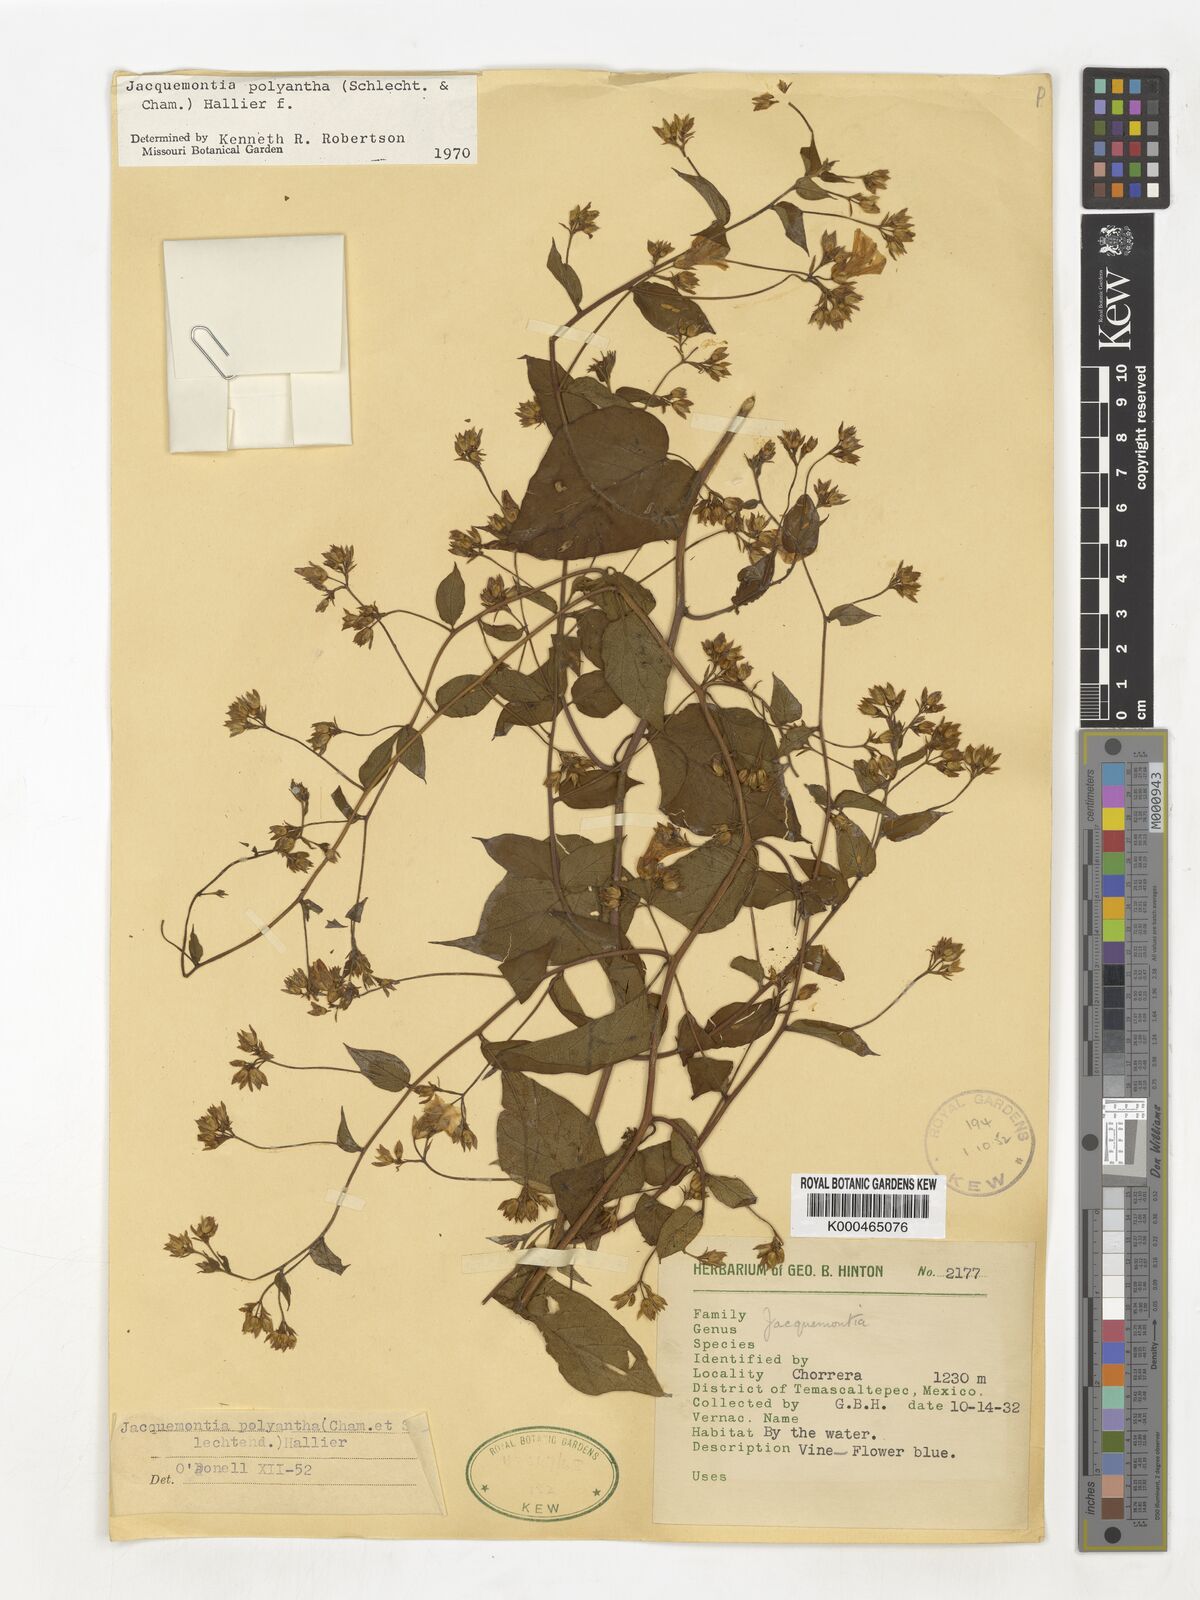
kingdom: Plantae
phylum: Tracheophyta
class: Magnoliopsida
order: Solanales
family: Convolvulaceae
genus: Jacquemontia
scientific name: Jacquemontia polyantha
